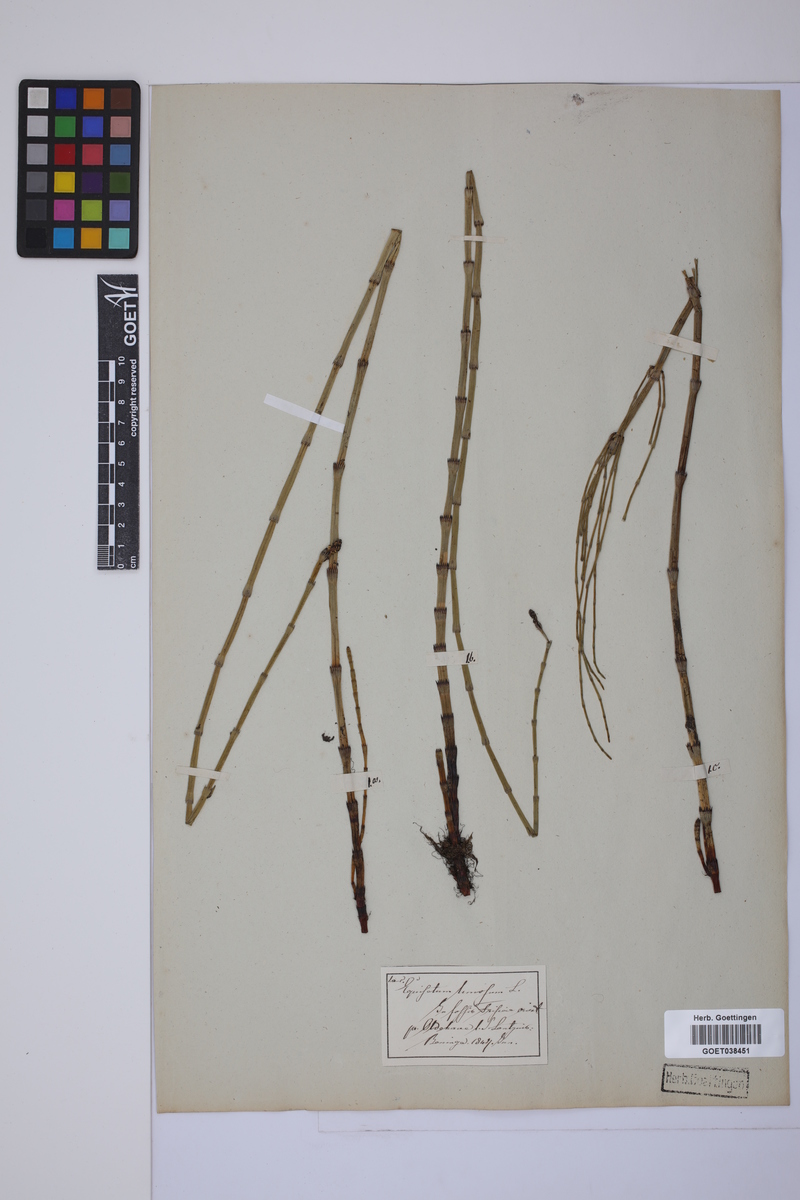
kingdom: Plantae
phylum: Tracheophyta
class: Polypodiopsida
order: Equisetales
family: Equisetaceae
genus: Equisetum
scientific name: Equisetum fluviatile
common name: Water horsetail
